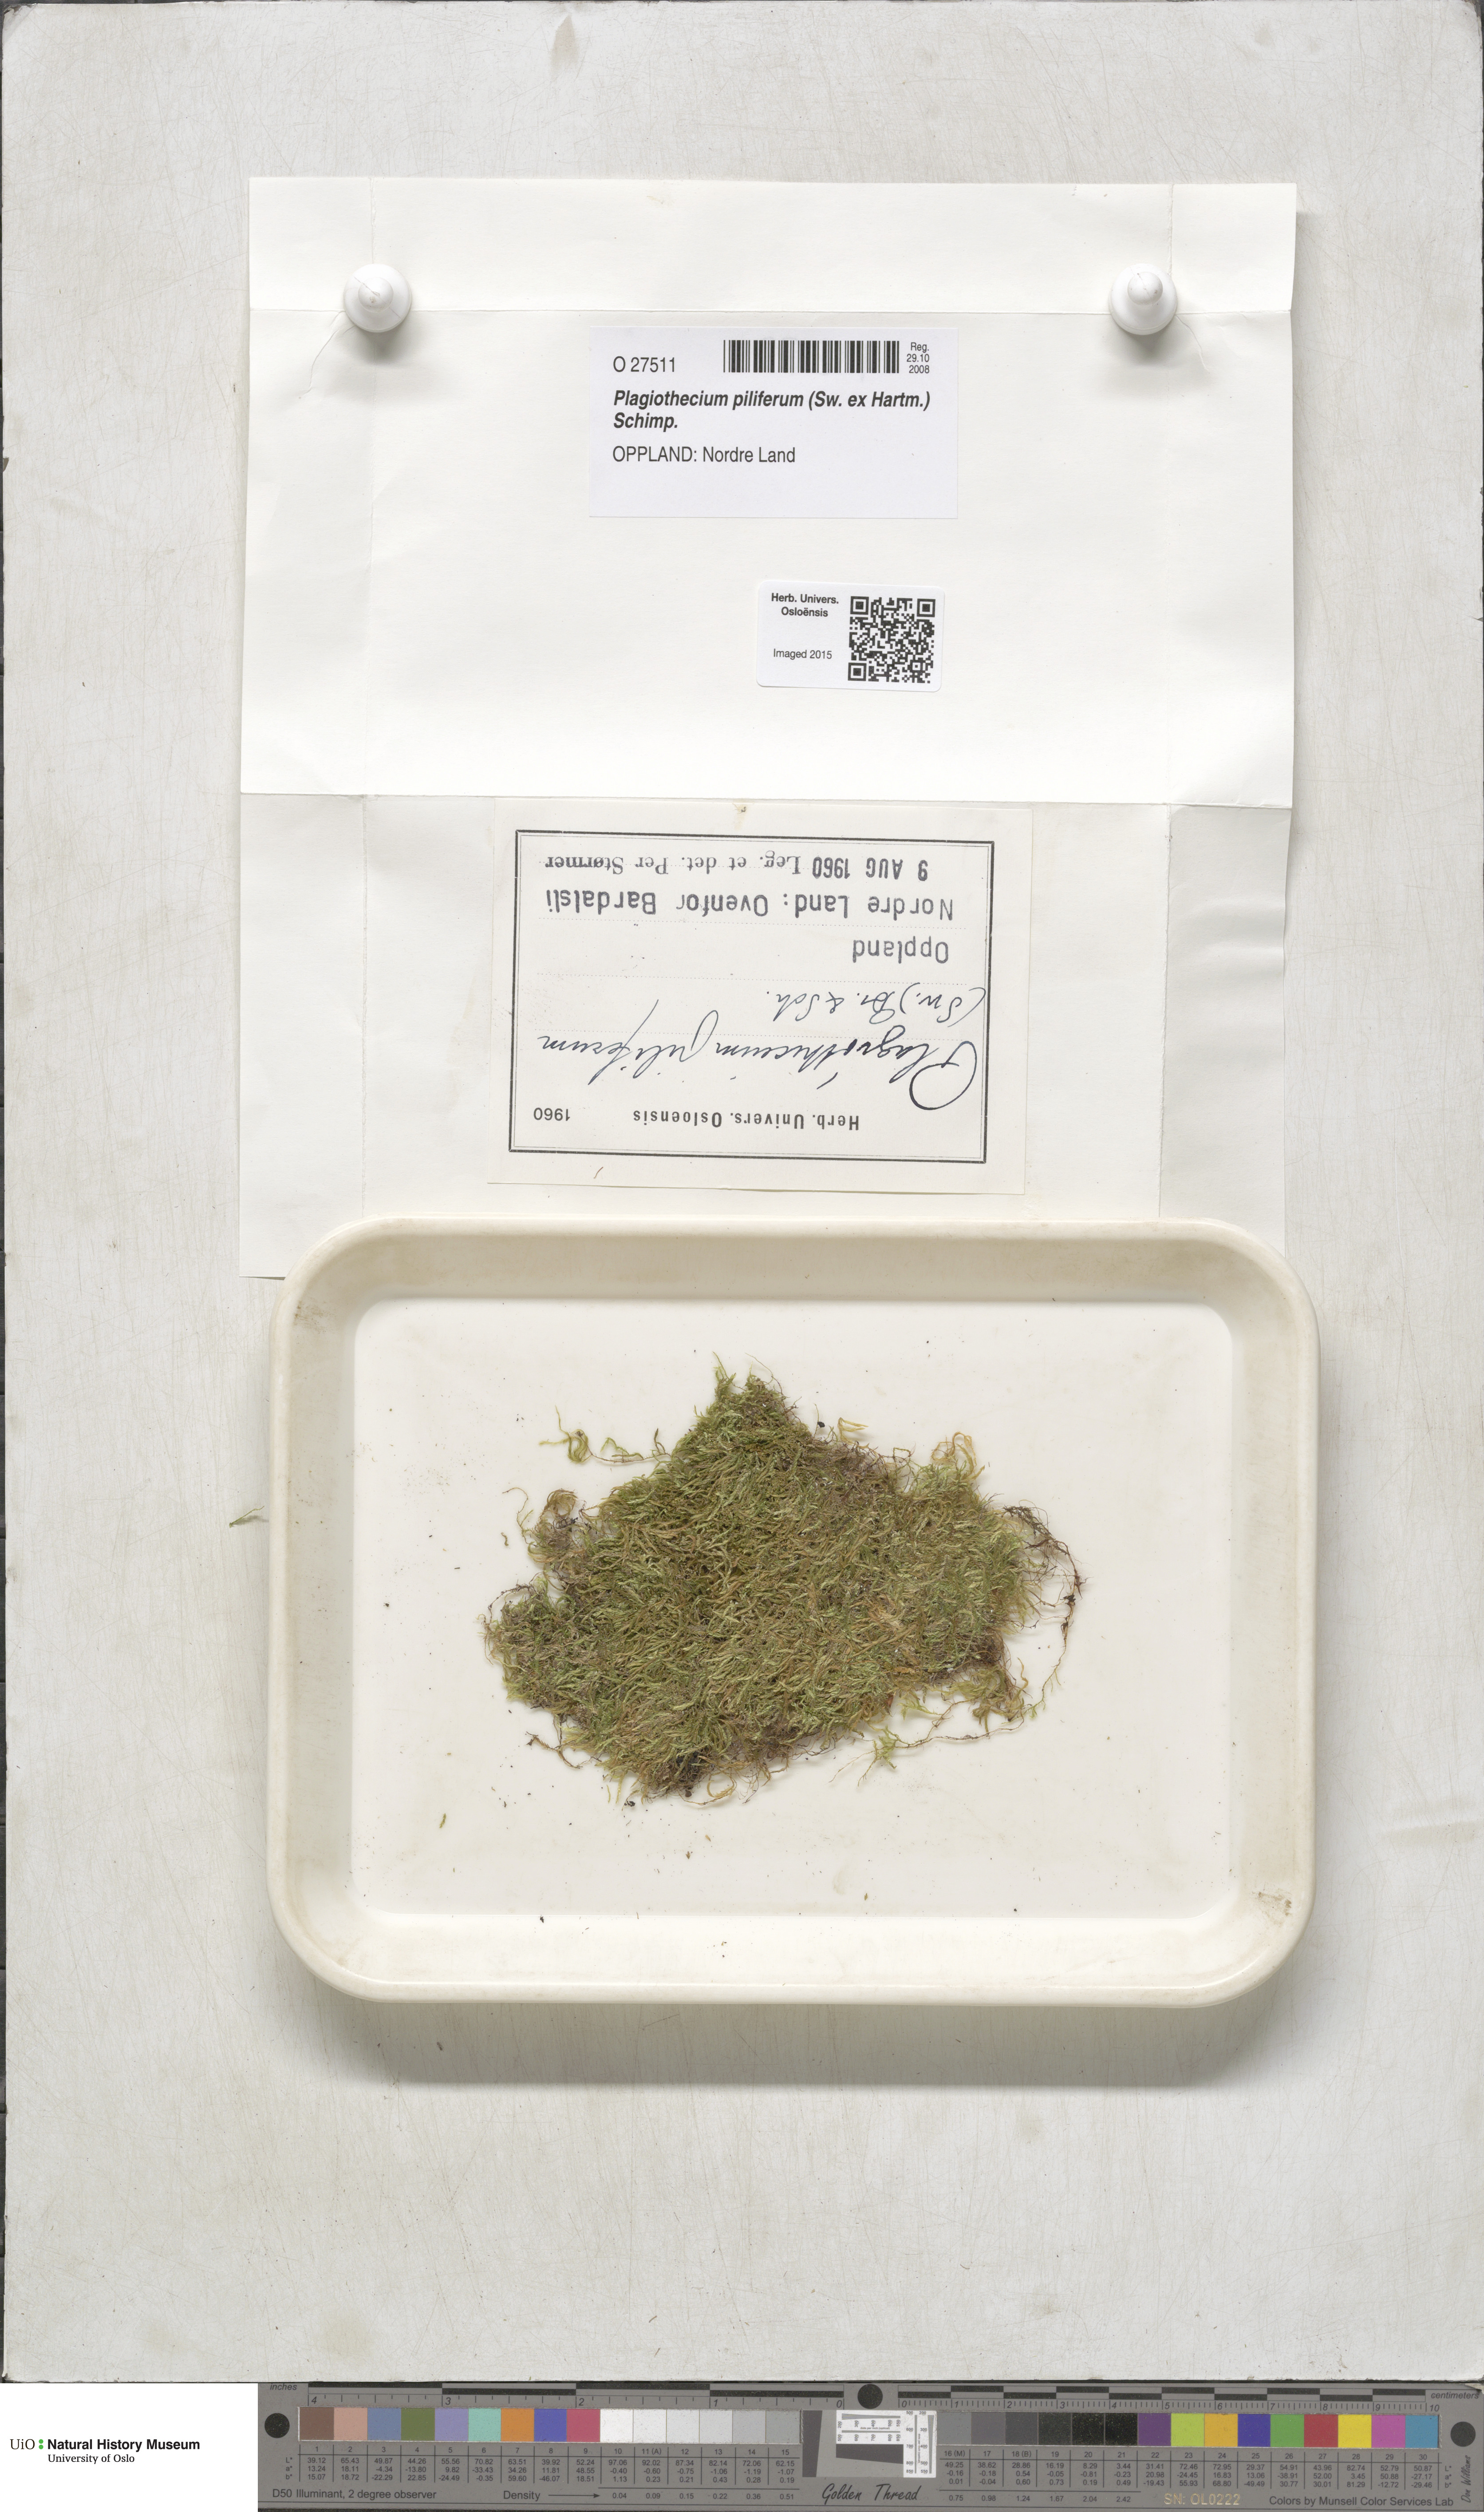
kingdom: Plantae
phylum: Bryophyta
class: Bryopsida
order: Hypnales
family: Plagiotheciaceae
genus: Rectithecium
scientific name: Rectithecium piliferum
